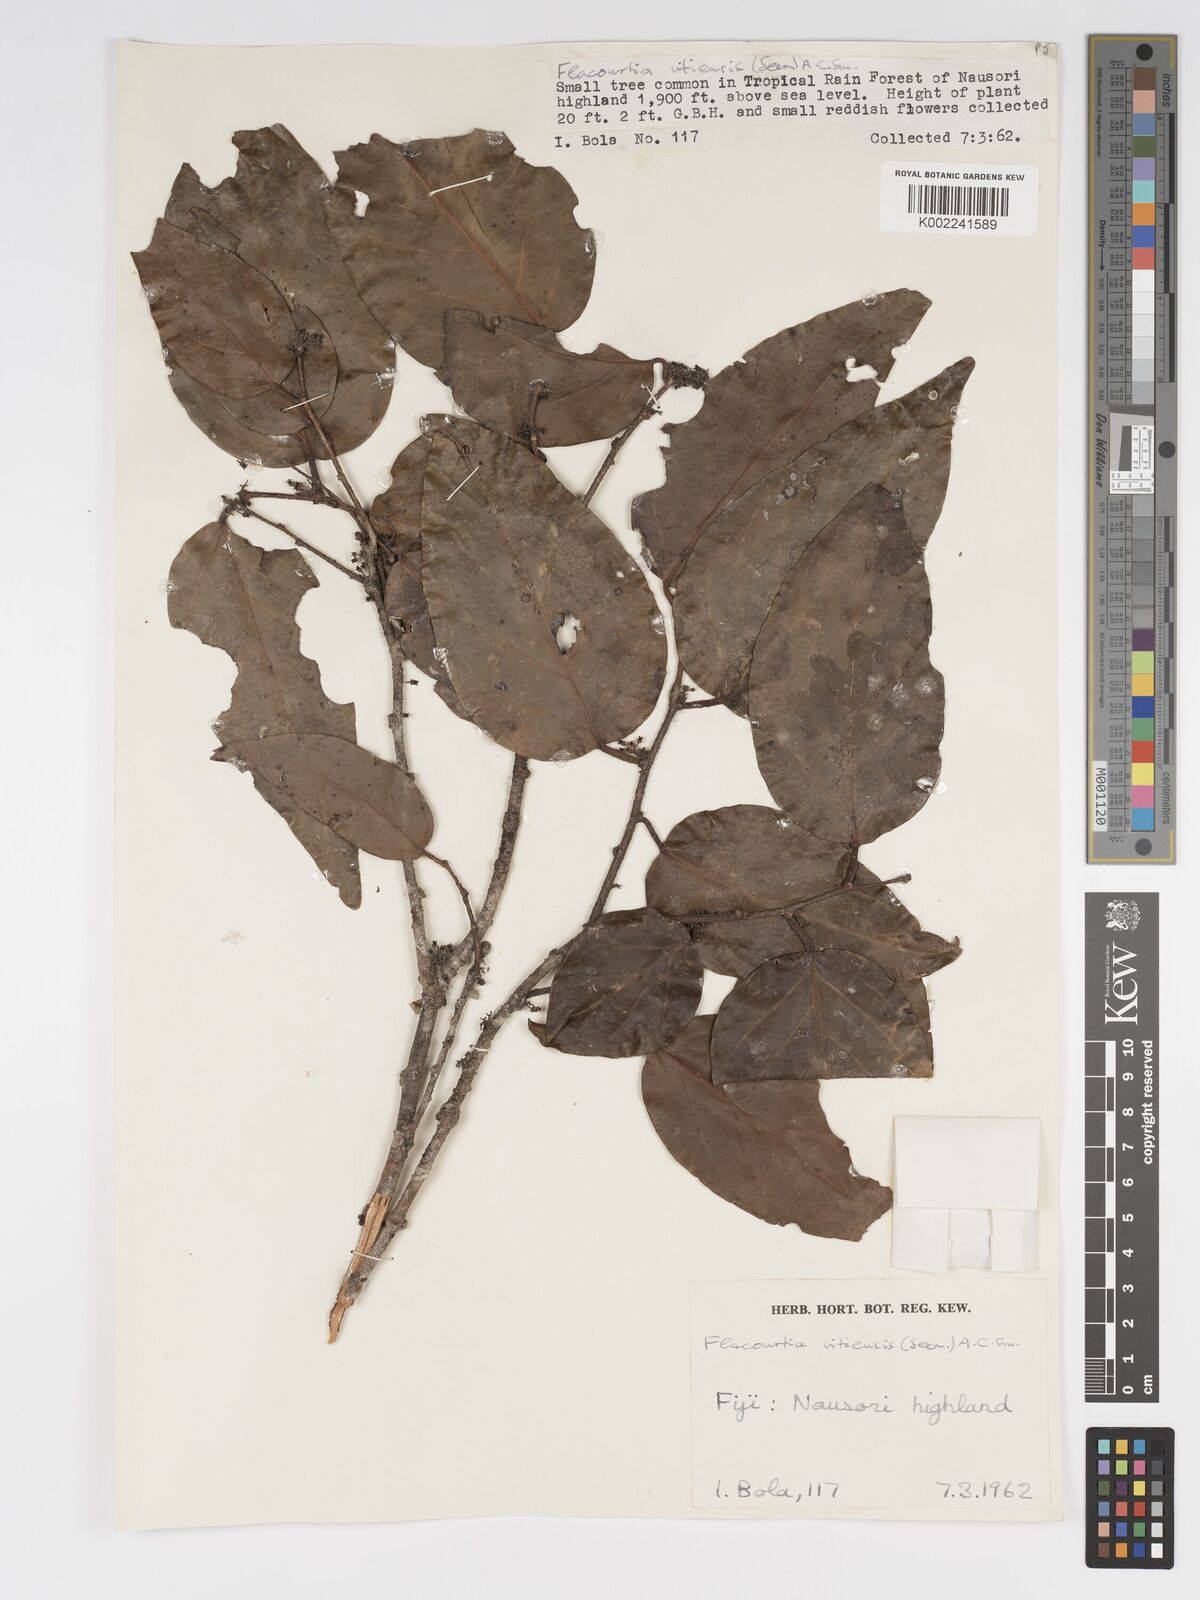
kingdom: Plantae
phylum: Tracheophyta
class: Magnoliopsida
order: Malpighiales
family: Salicaceae
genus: Flacourtia
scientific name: Flacourtia vitiensis
